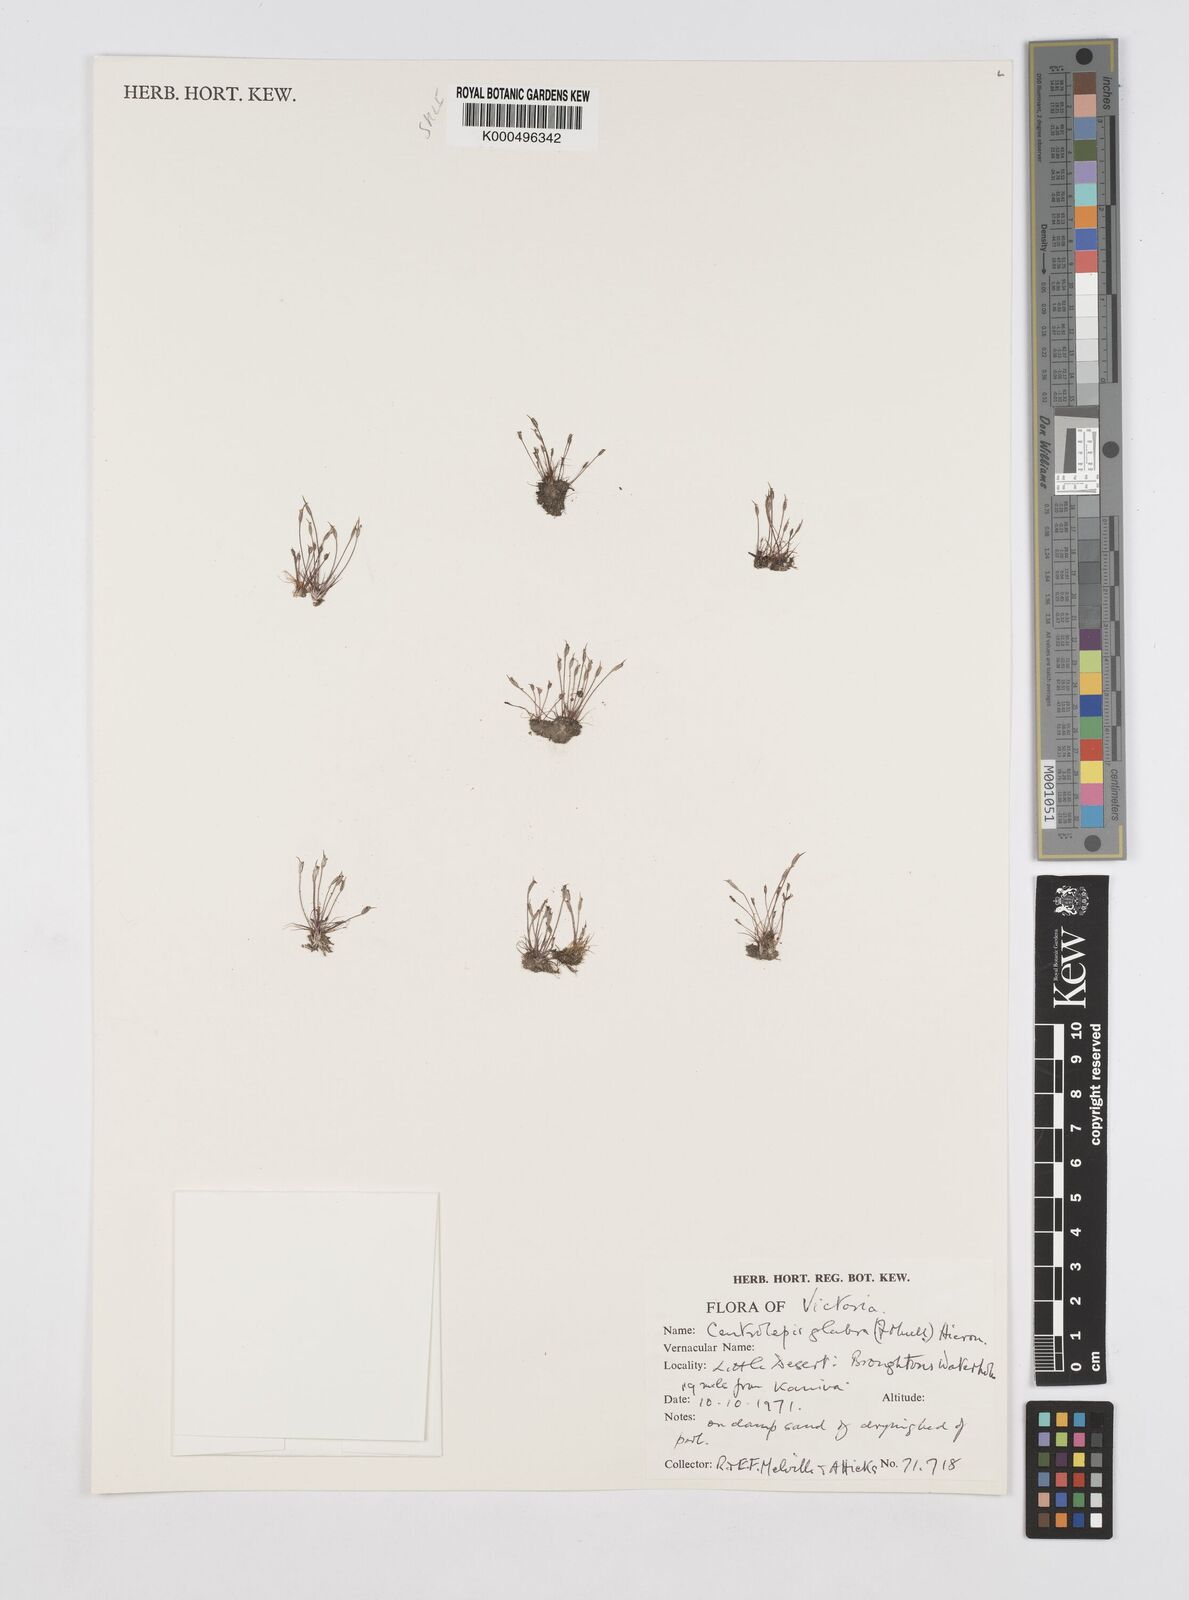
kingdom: Plantae
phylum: Tracheophyta
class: Liliopsida
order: Poales
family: Restionaceae
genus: Centrolepis
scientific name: Centrolepis glabra
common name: Smooth centrolepis
